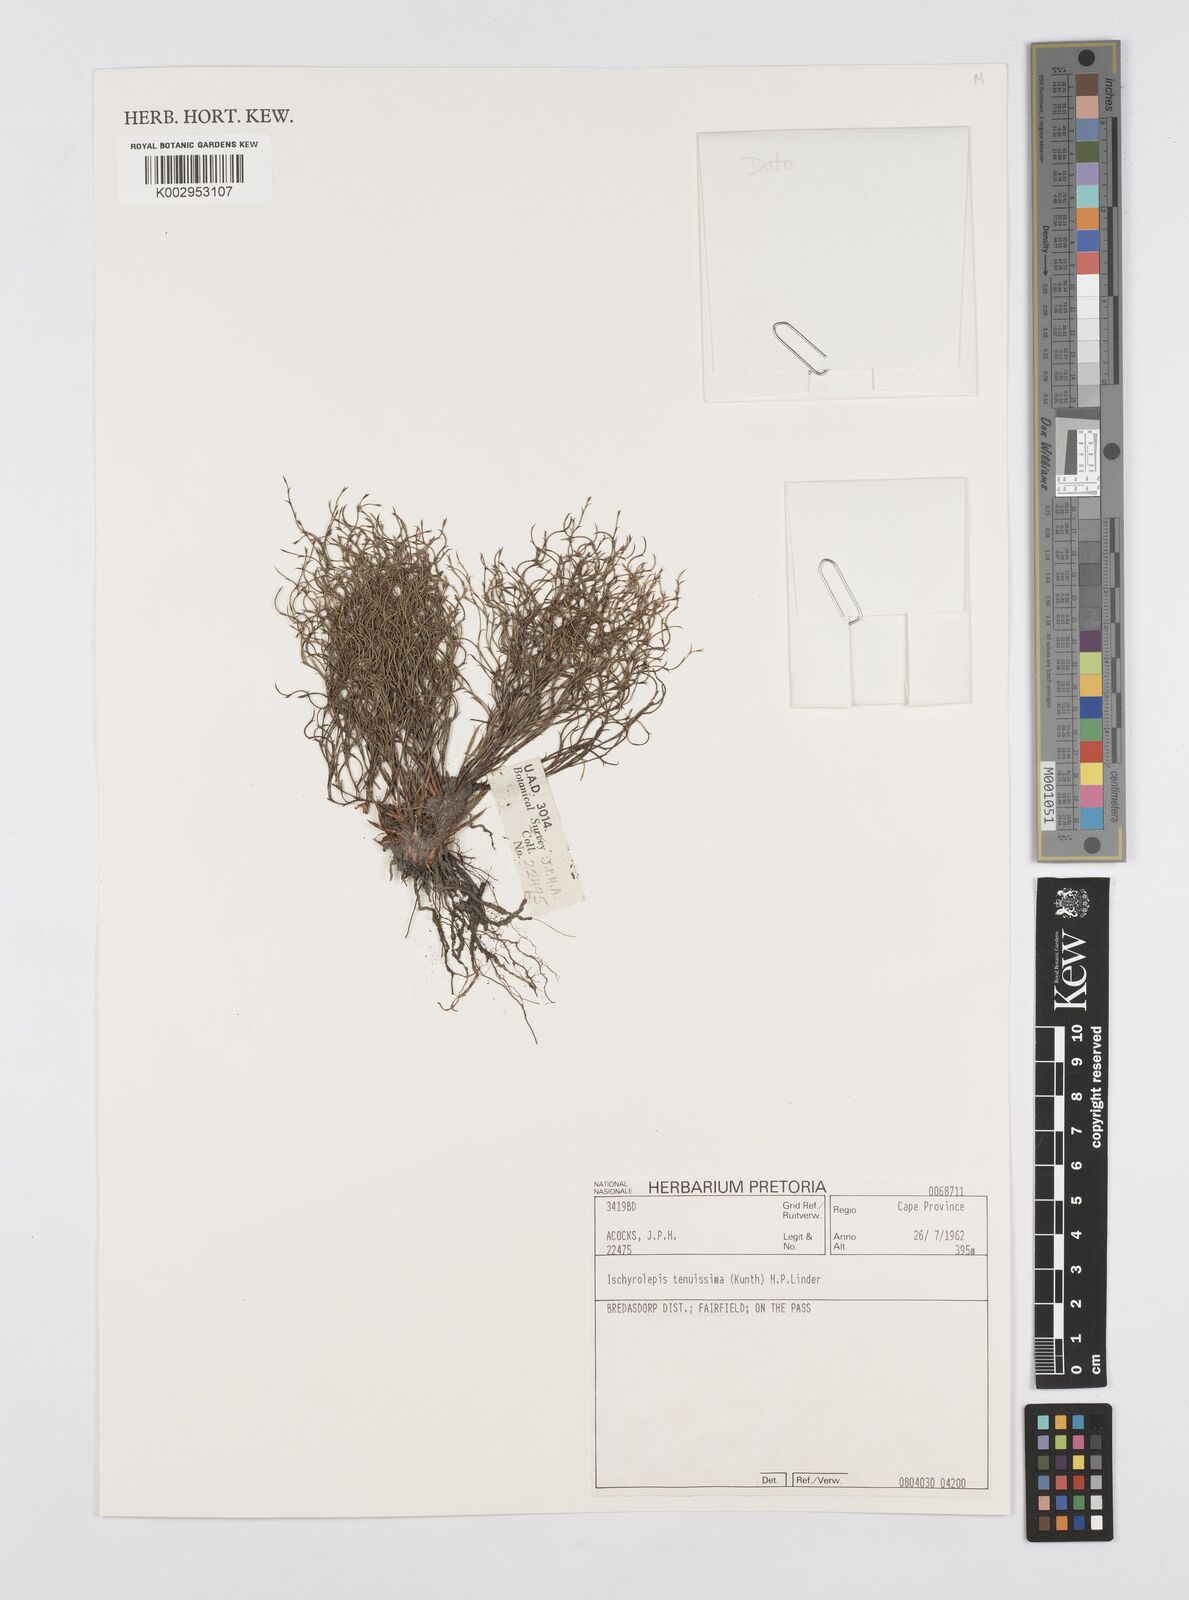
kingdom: Plantae
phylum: Tracheophyta
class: Liliopsida
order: Poales
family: Restionaceae
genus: Restio
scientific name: Restio tenuissimus
